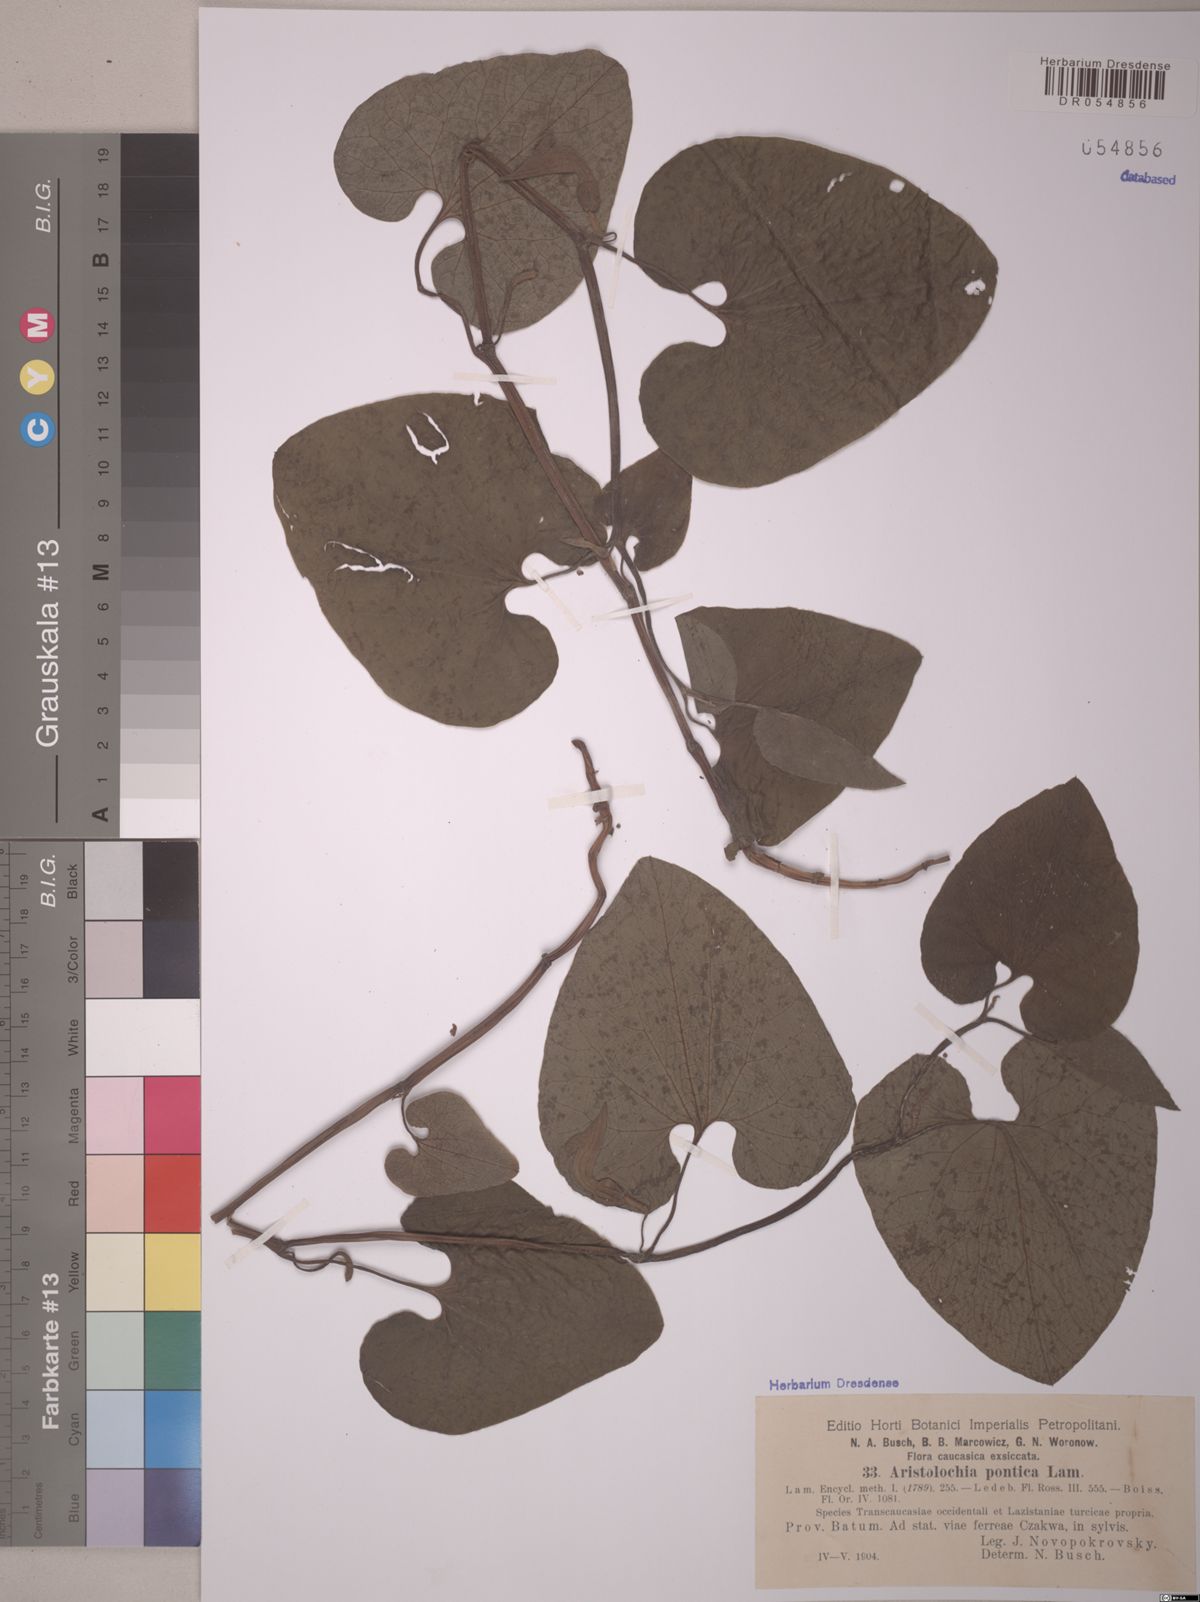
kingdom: Plantae
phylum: Tracheophyta
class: Magnoliopsida
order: Piperales
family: Aristolochiaceae
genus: Aristolochia
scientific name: Aristolochia pontica
